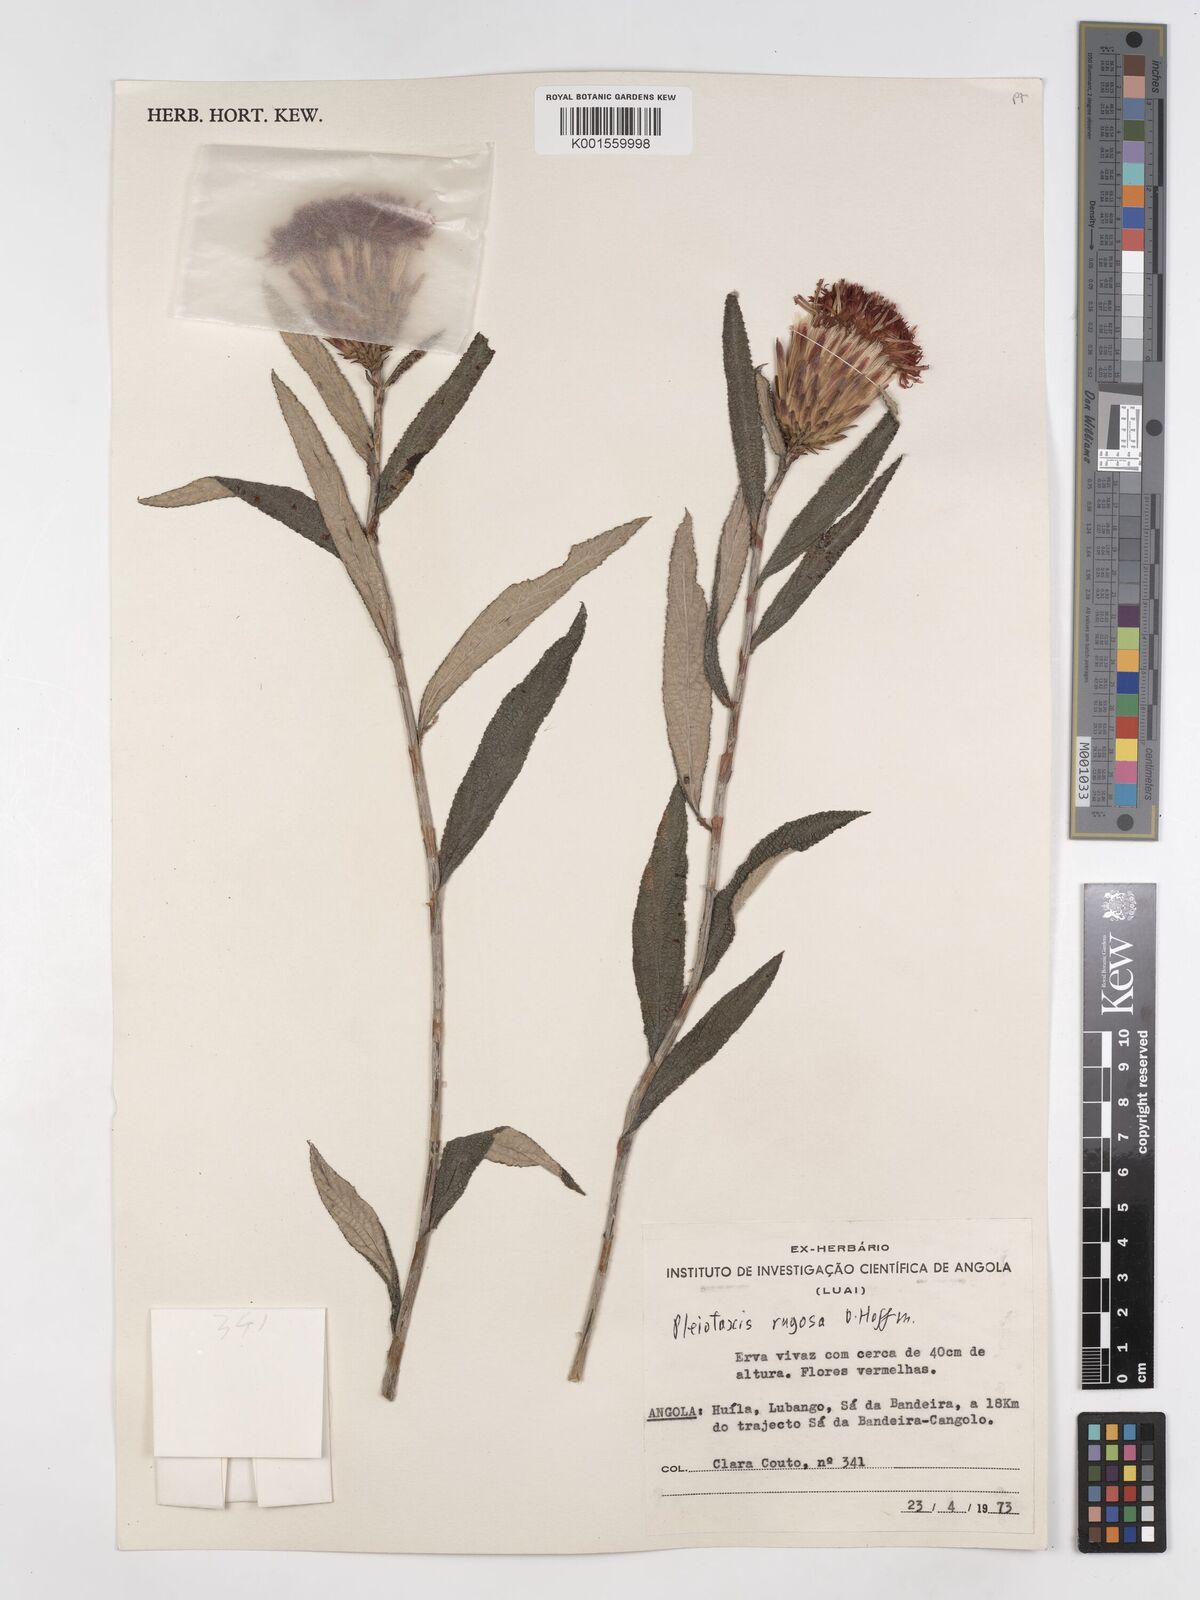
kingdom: Plantae
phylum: Tracheophyta
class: Magnoliopsida
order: Asterales
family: Asteraceae
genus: Pleiotaxis
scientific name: Pleiotaxis rugosa
